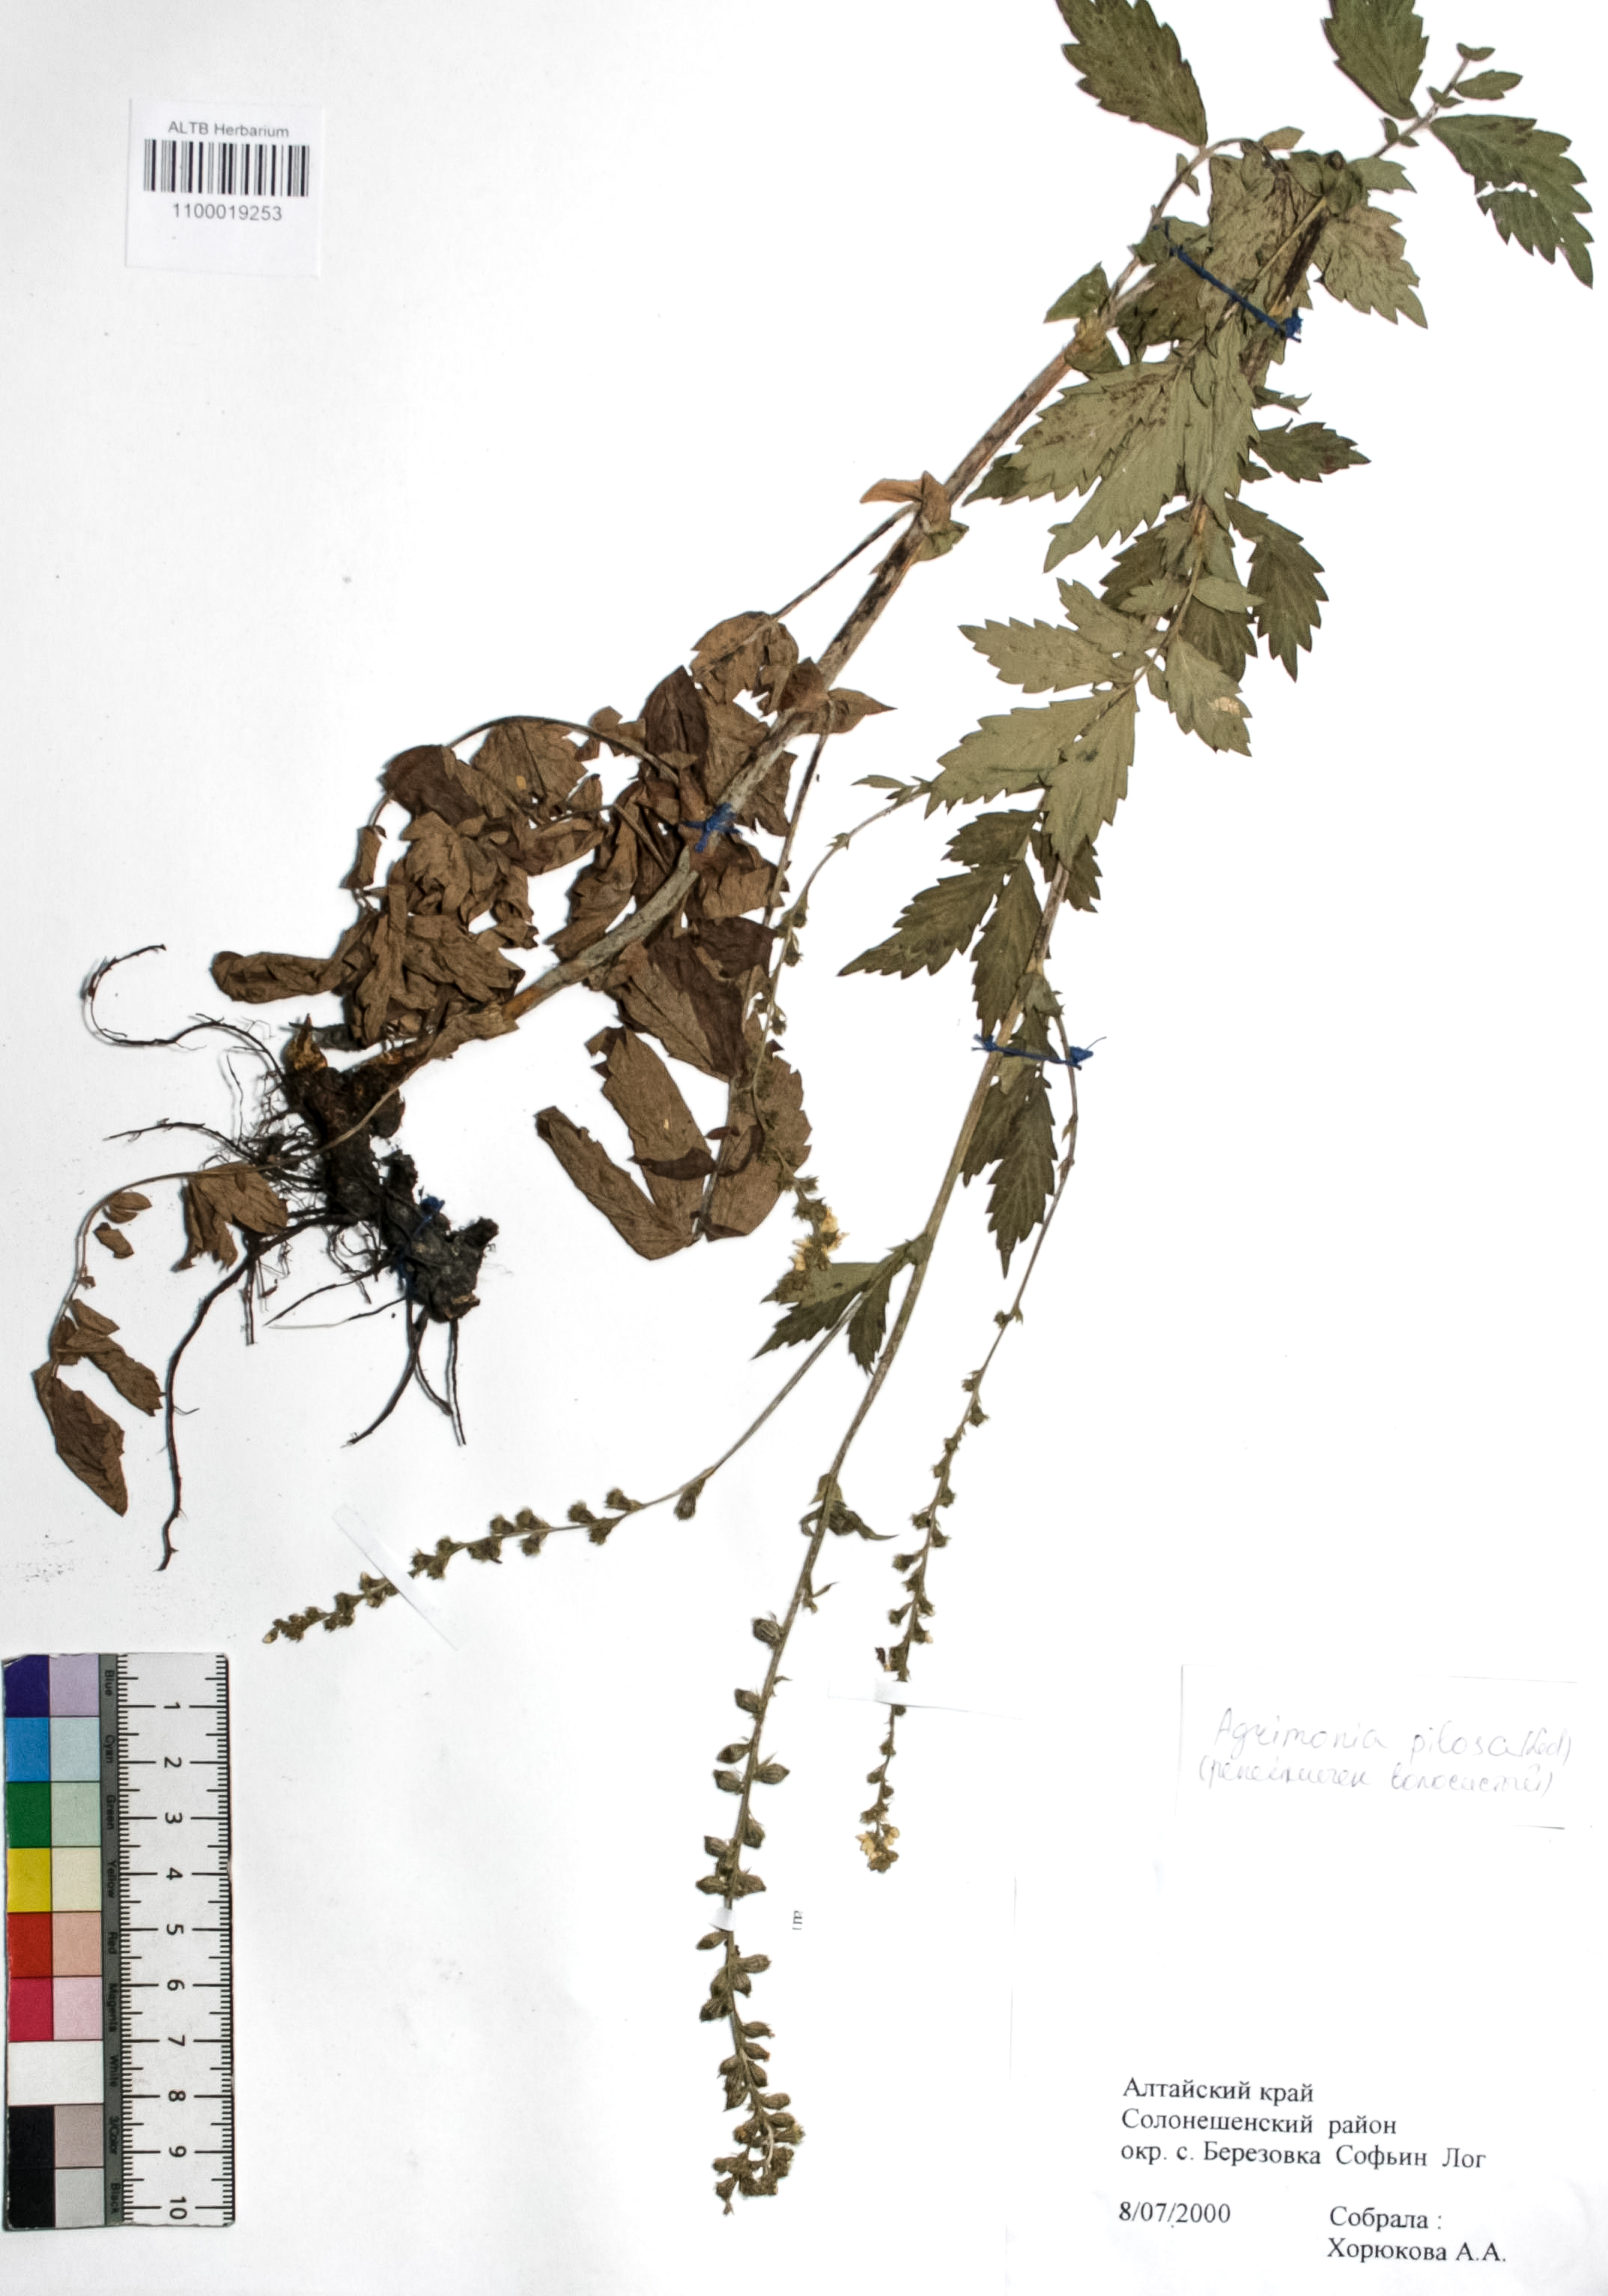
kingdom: Plantae
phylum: Tracheophyta
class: Magnoliopsida
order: Rosales
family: Rosaceae
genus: Agrimonia
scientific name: Agrimonia pilosa
